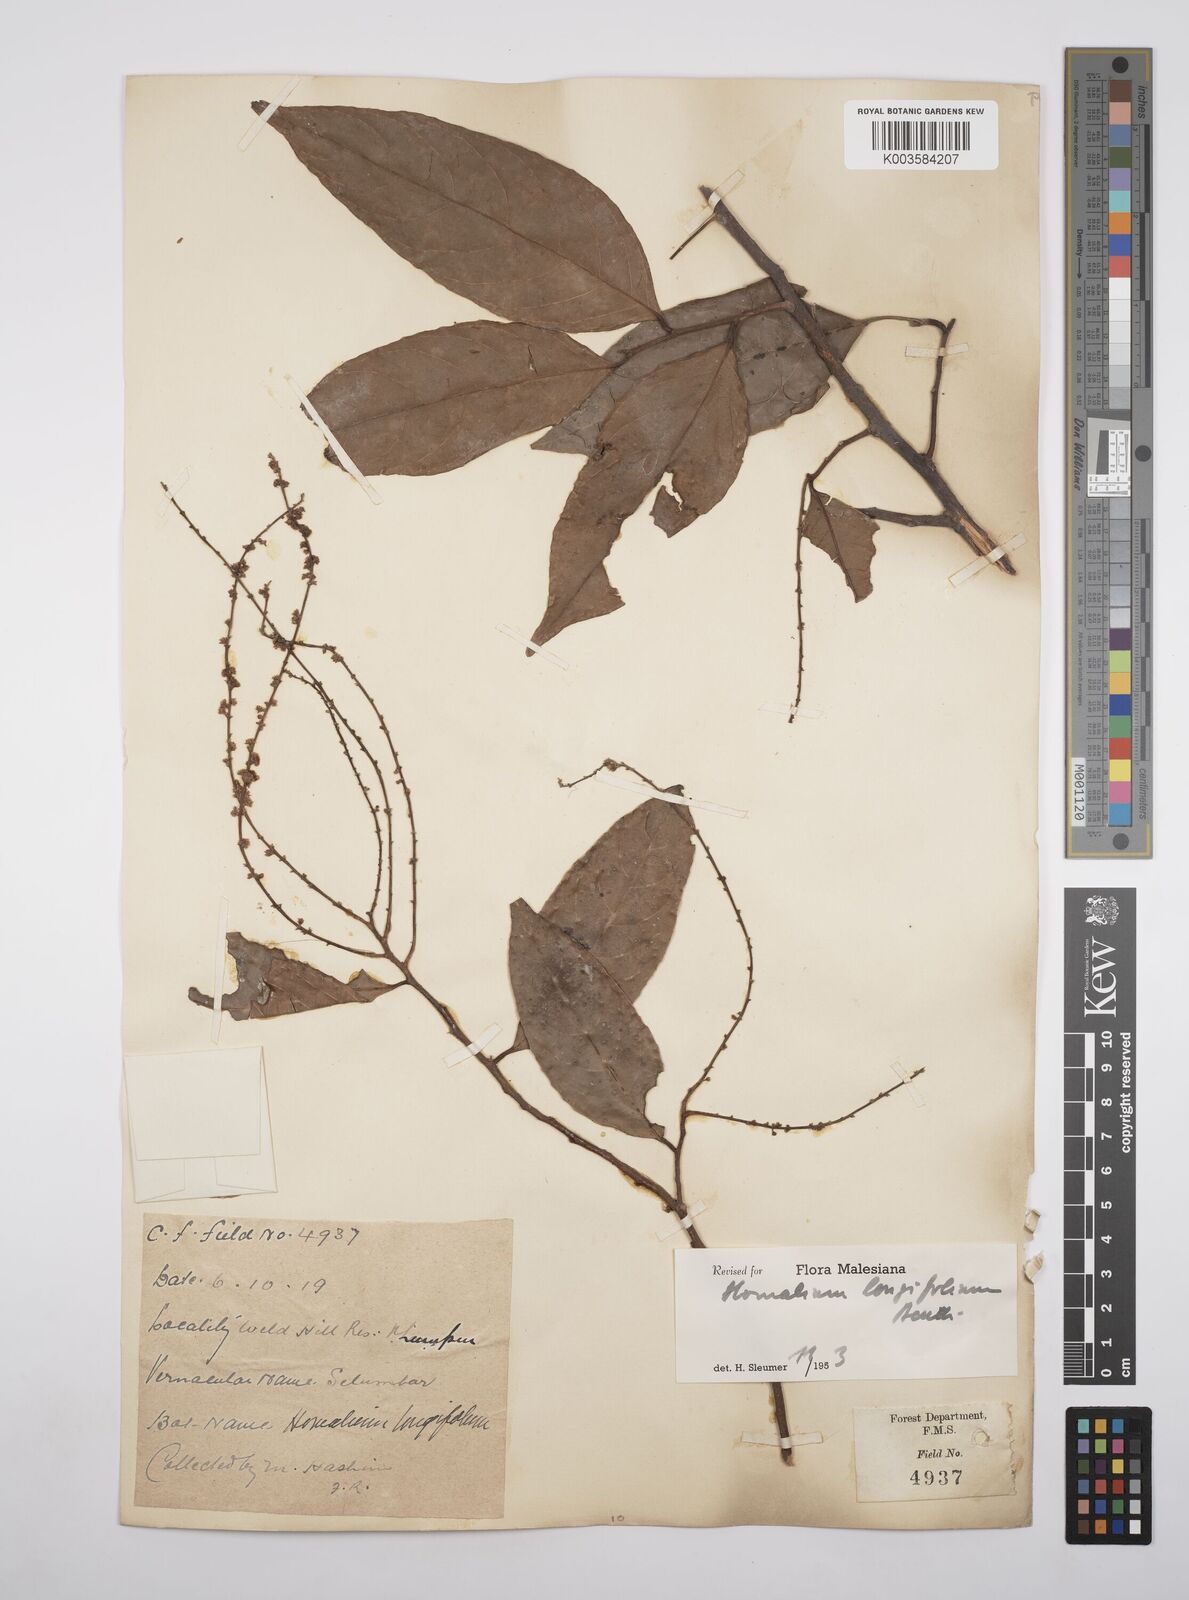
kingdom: Plantae
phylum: Tracheophyta
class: Magnoliopsida
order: Malpighiales
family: Salicaceae
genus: Homalium
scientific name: Homalium longifolium
